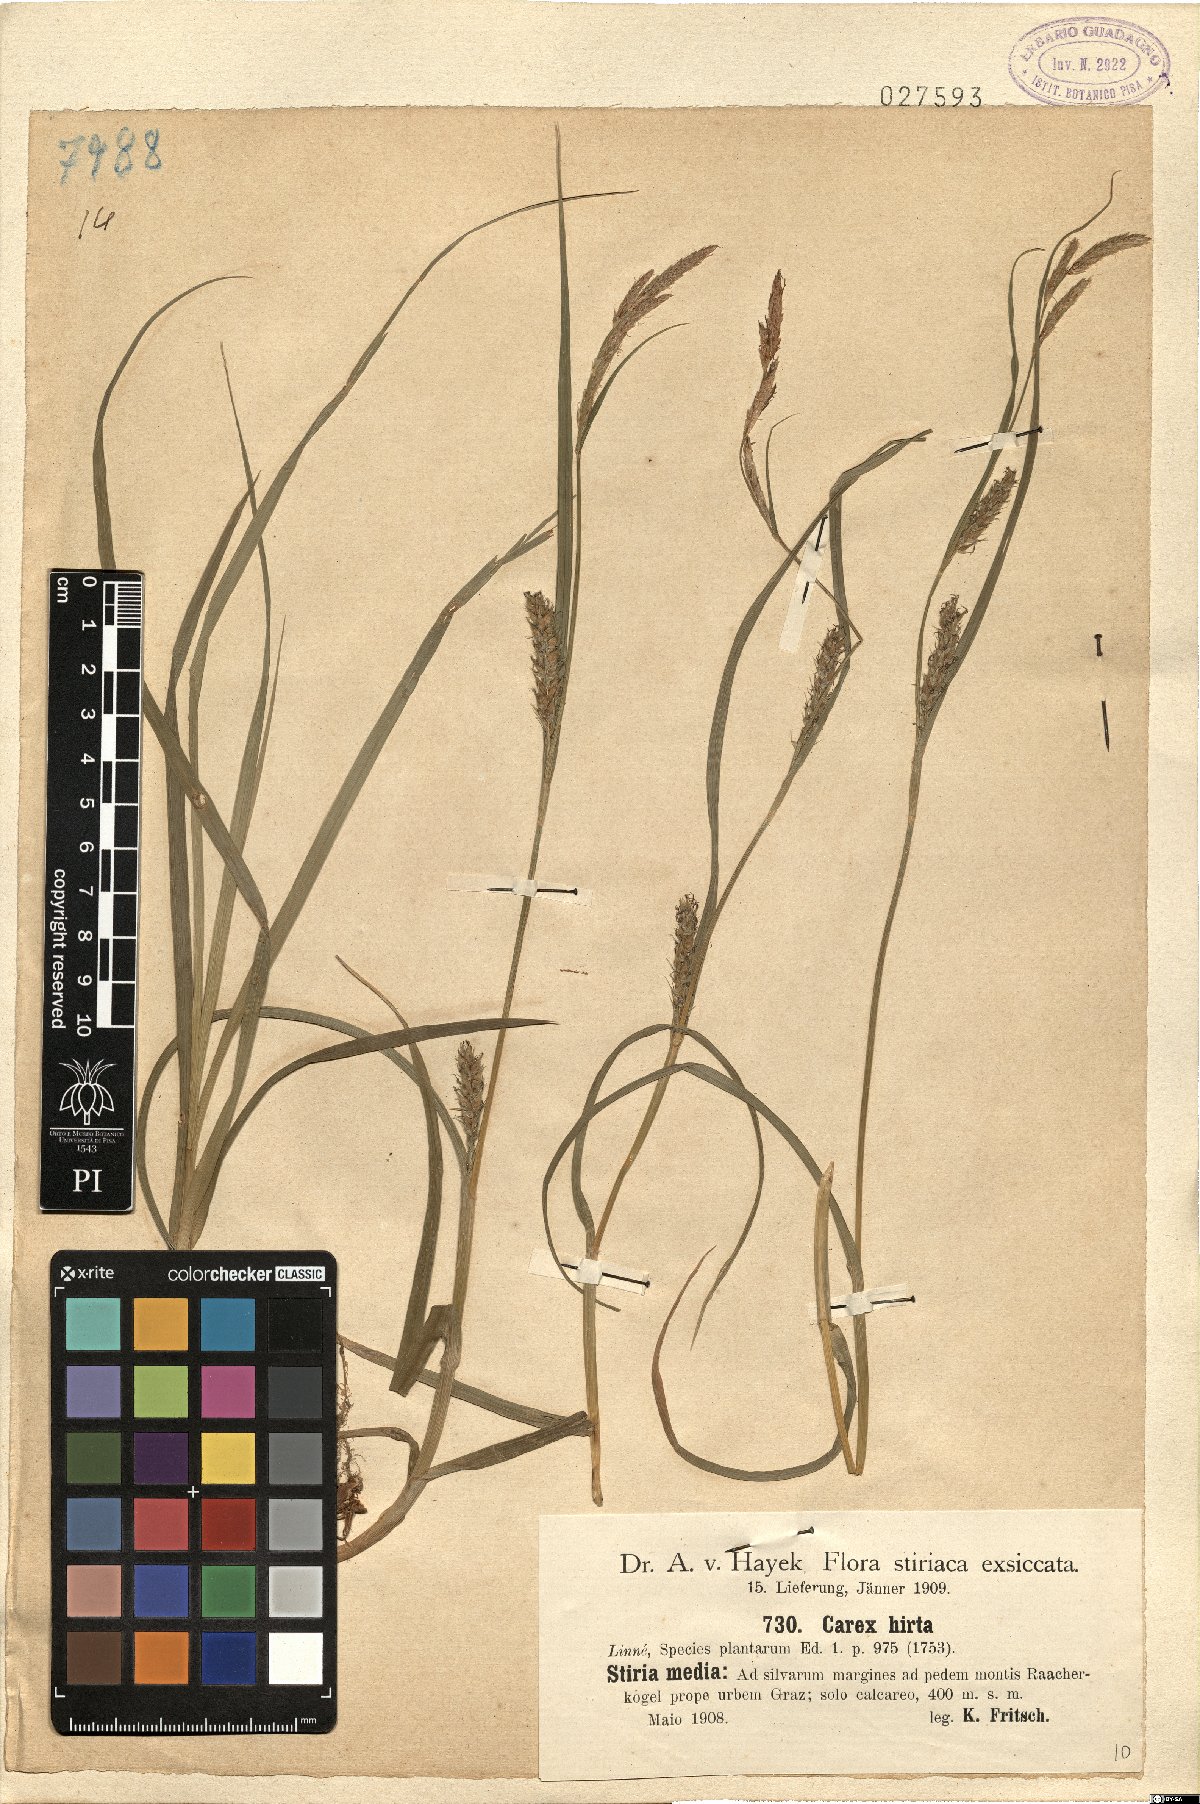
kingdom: Plantae
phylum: Tracheophyta
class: Liliopsida
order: Poales
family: Cyperaceae
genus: Carex
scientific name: Carex hirta
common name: Hairy sedge
